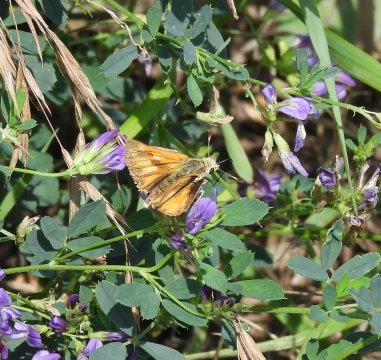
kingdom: Animalia
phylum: Arthropoda
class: Insecta
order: Lepidoptera
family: Hesperiidae
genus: Ochlodes
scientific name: Ochlodes sylvanoides
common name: Woodland Skipper
